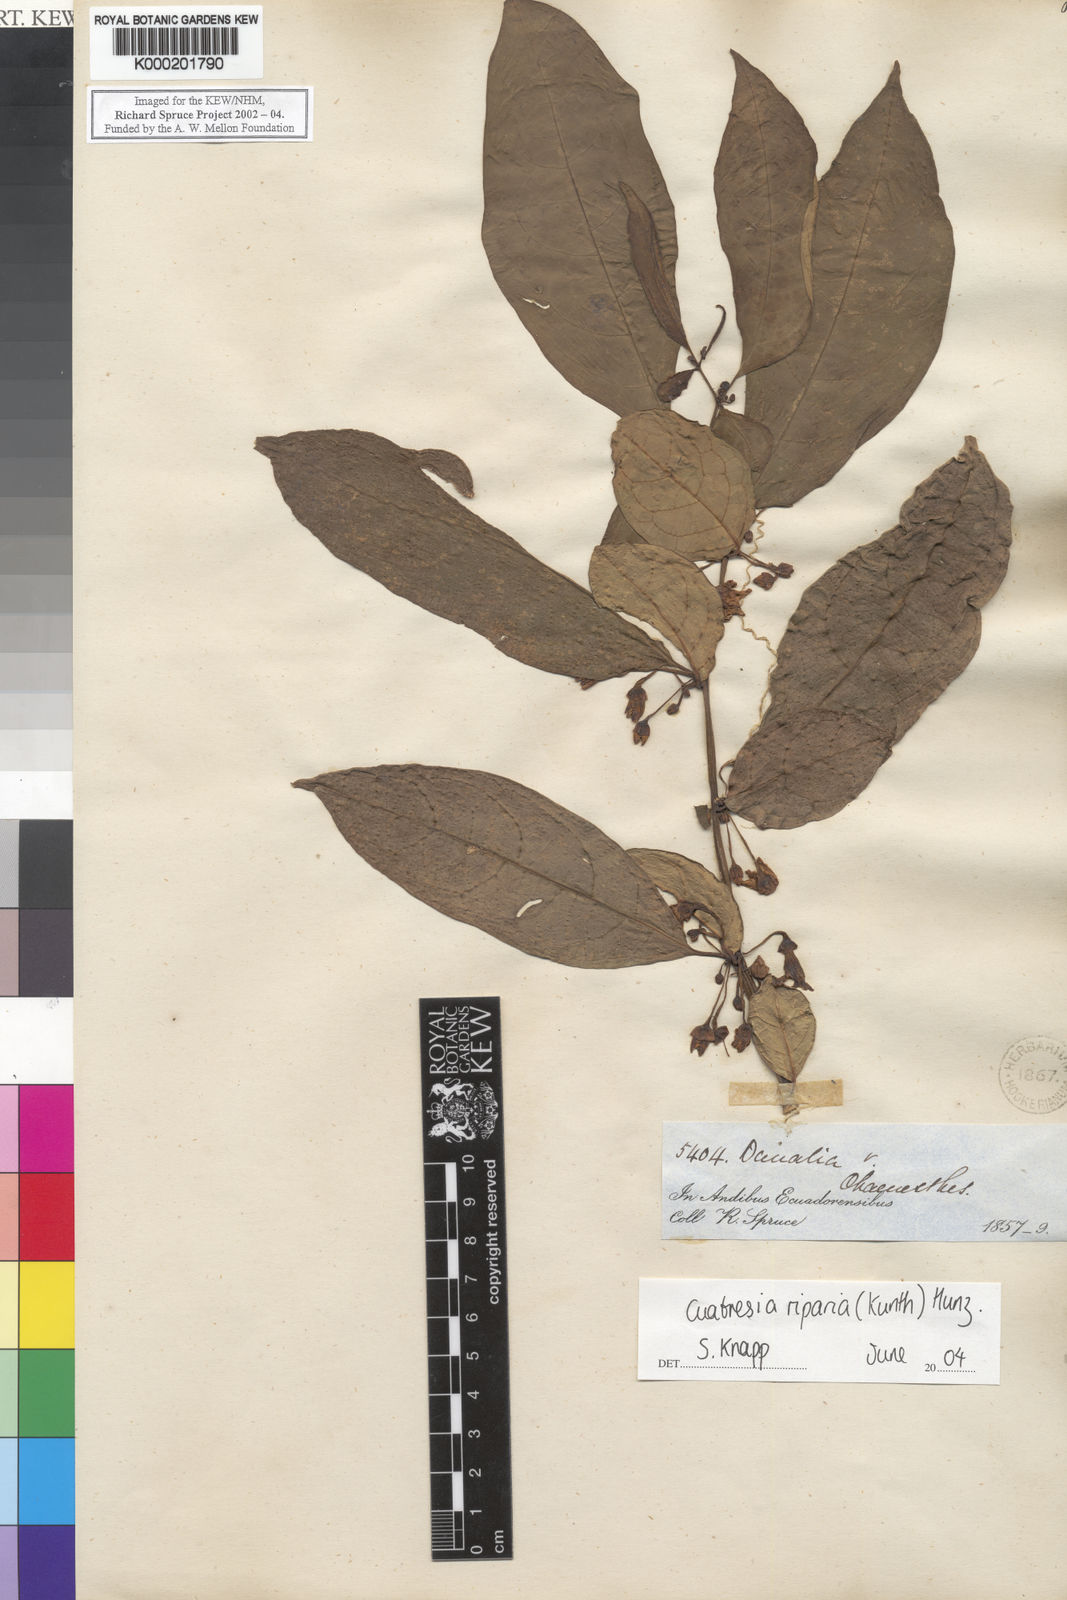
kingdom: Plantae
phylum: Tracheophyta
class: Magnoliopsida
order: Solanales
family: Solanaceae
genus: Cuatresia
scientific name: Cuatresia riparia
